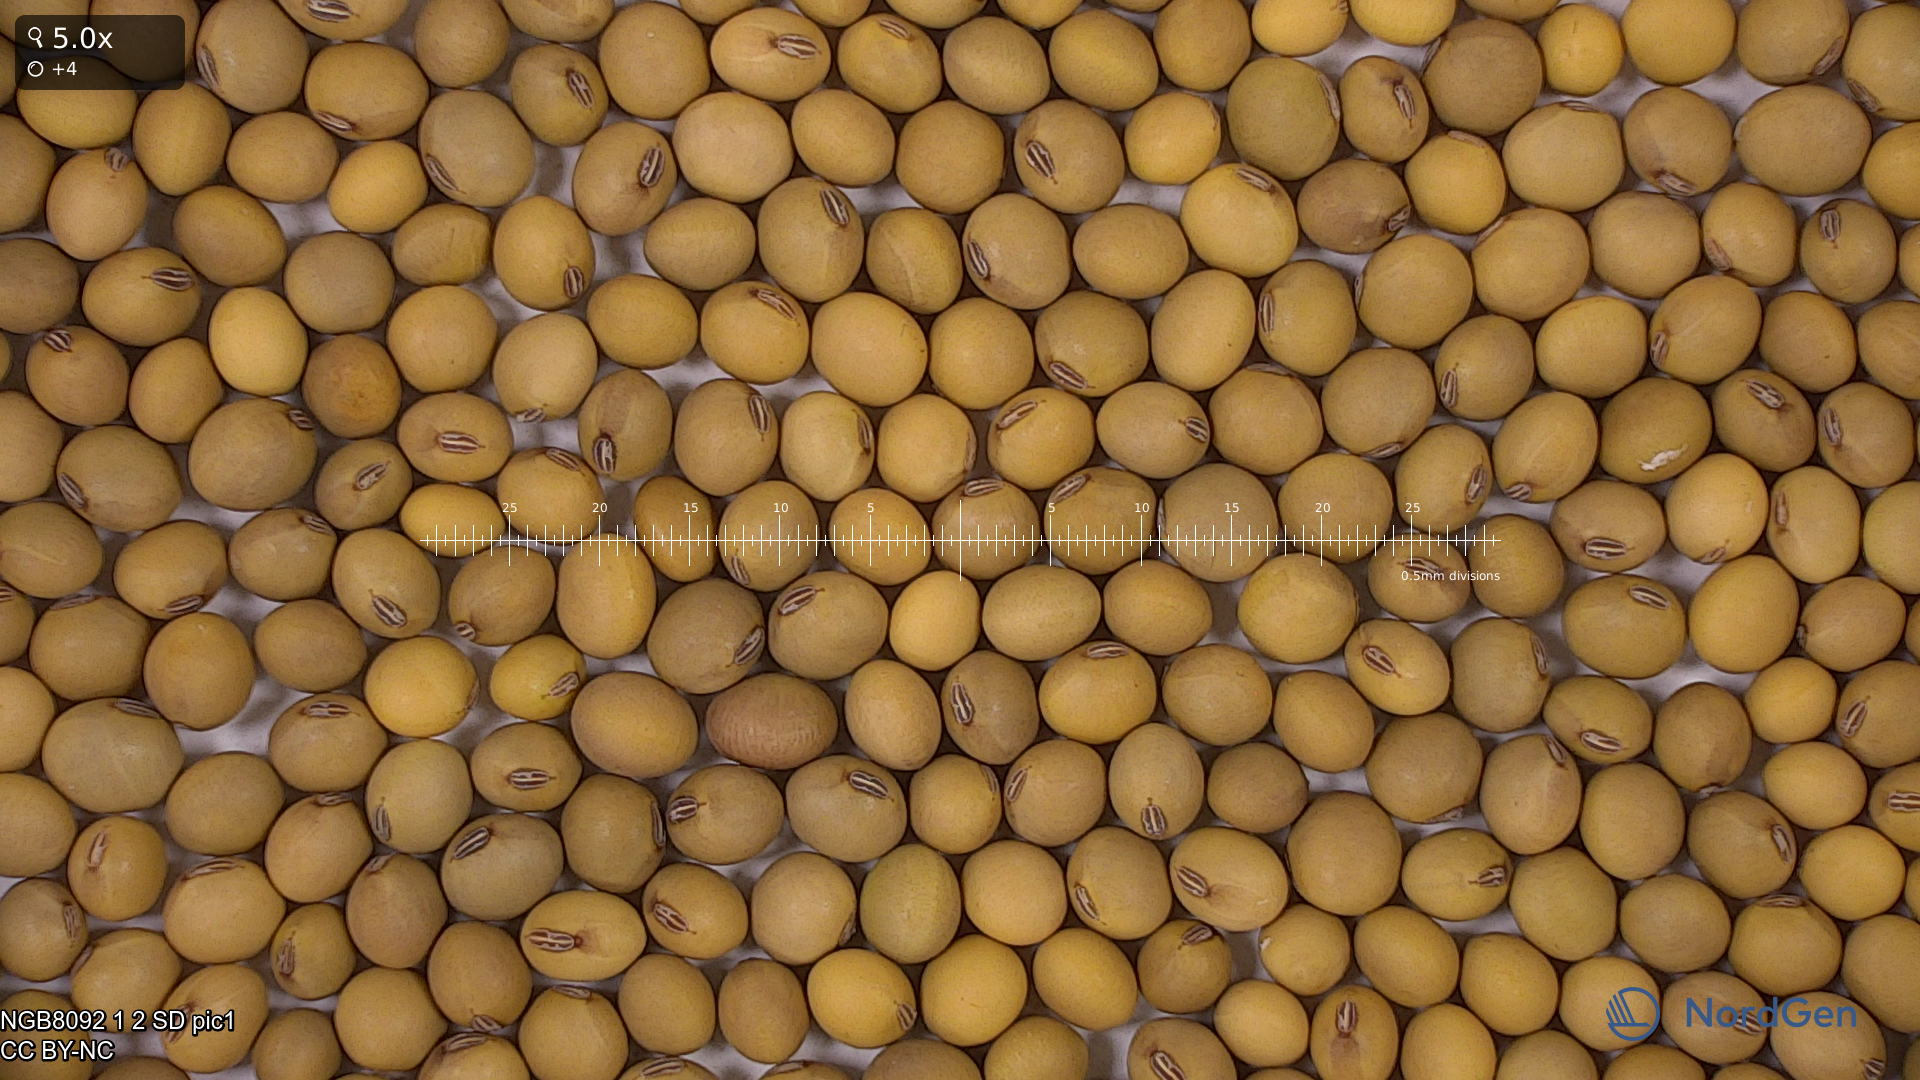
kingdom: Plantae
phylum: Tracheophyta
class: Magnoliopsida
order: Fabales
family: Fabaceae
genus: Glycine
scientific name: Glycine max
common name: Soya-bean
